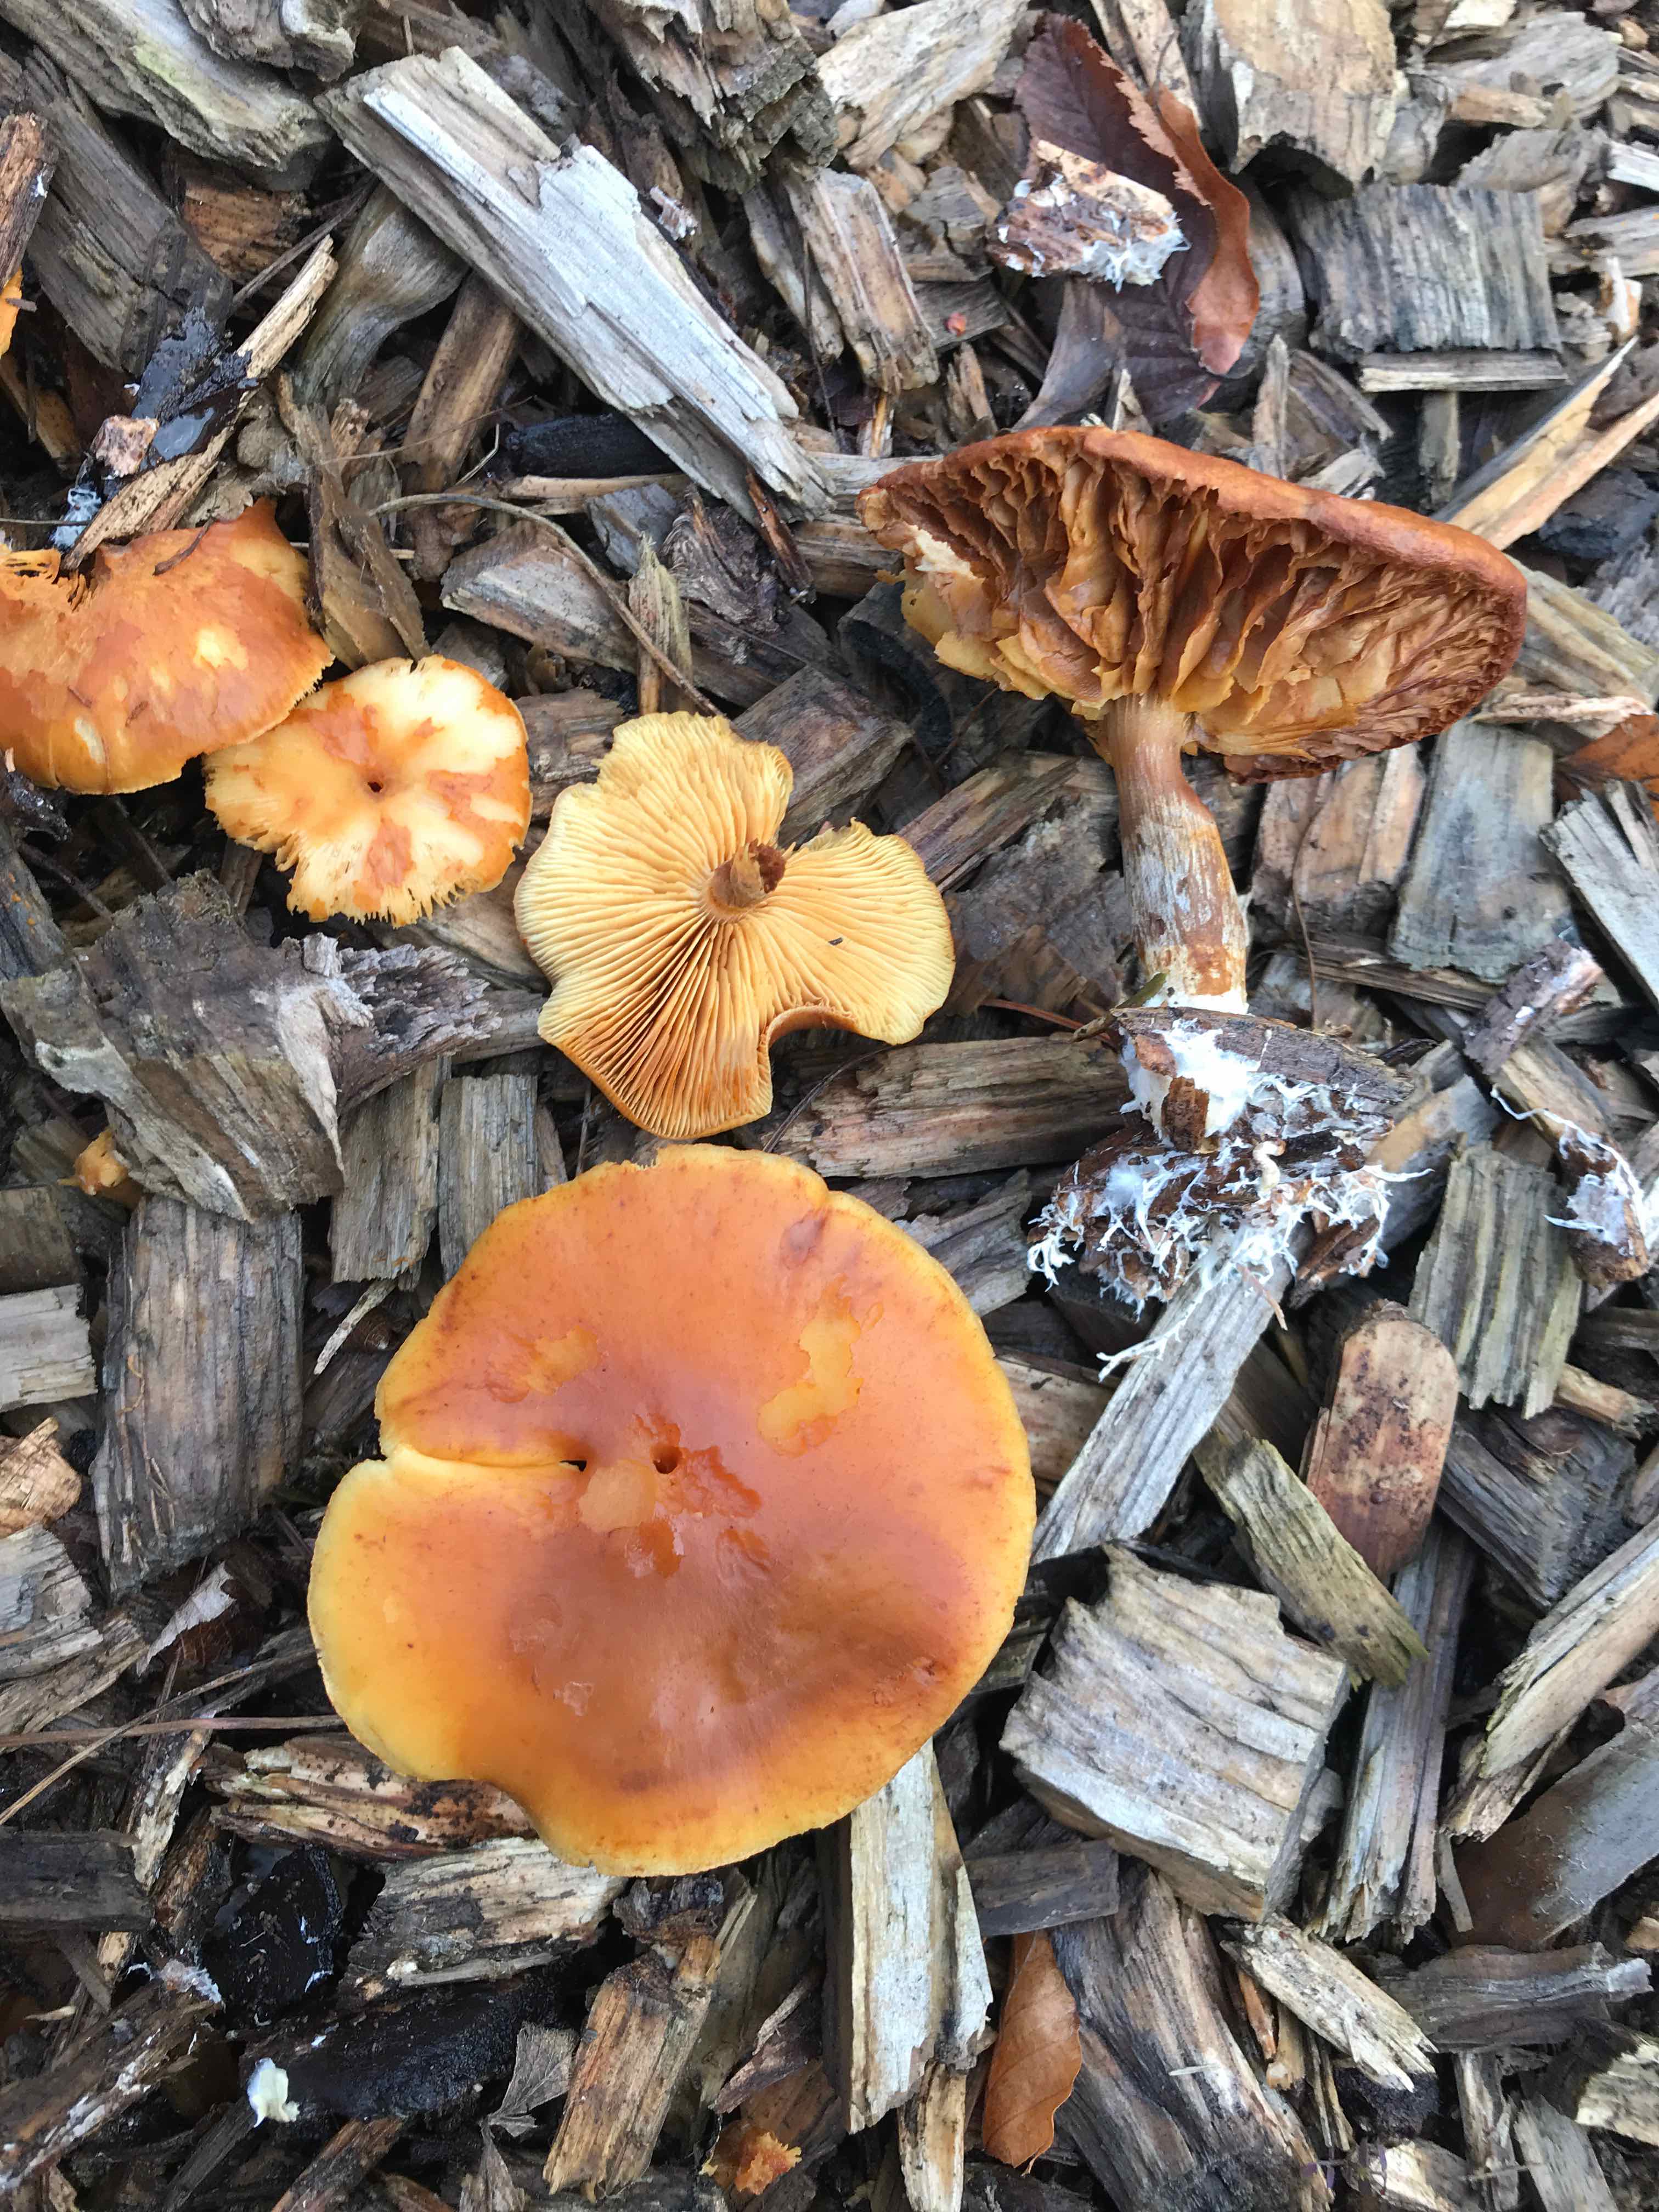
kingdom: Fungi
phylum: Basidiomycota
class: Agaricomycetes
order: Agaricales
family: Hymenogastraceae
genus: Gymnopilus
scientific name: Gymnopilus penetrans
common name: plettet flammehat
